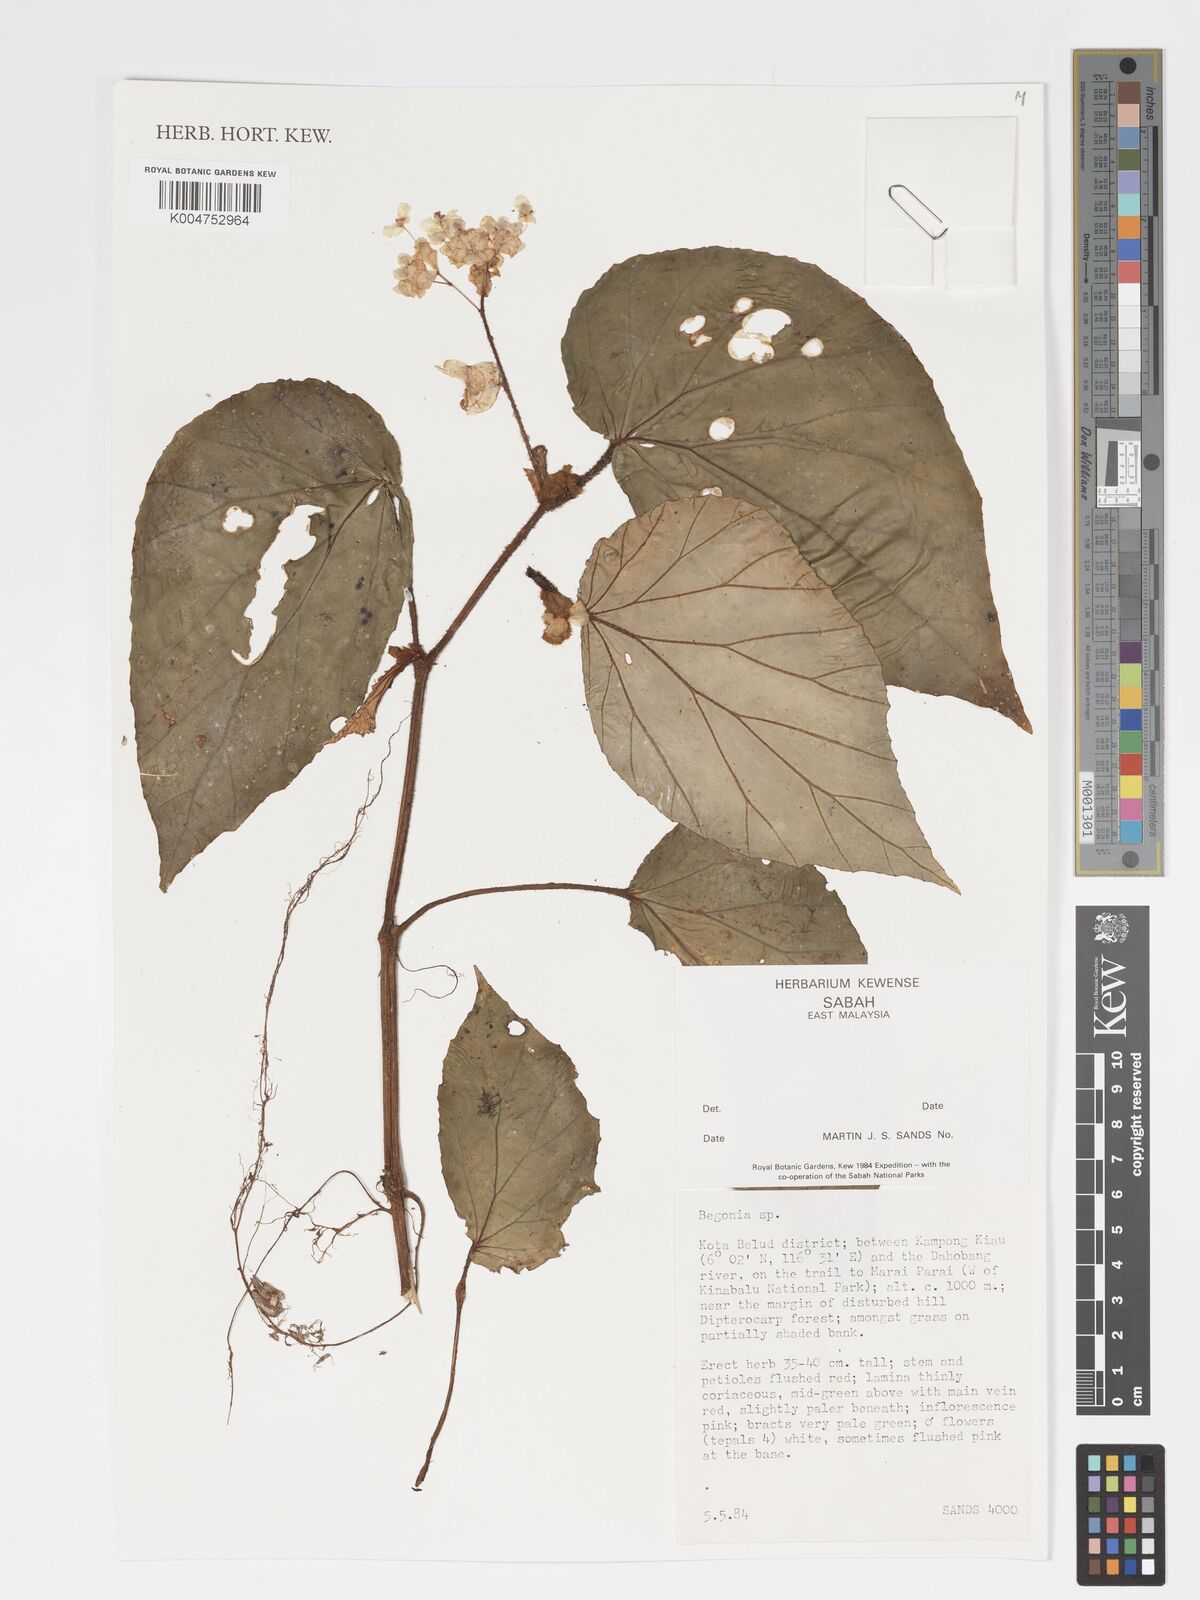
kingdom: Plantae
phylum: Tracheophyta
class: Magnoliopsida
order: Cucurbitales
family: Begoniaceae
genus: Begonia
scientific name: Begonia
